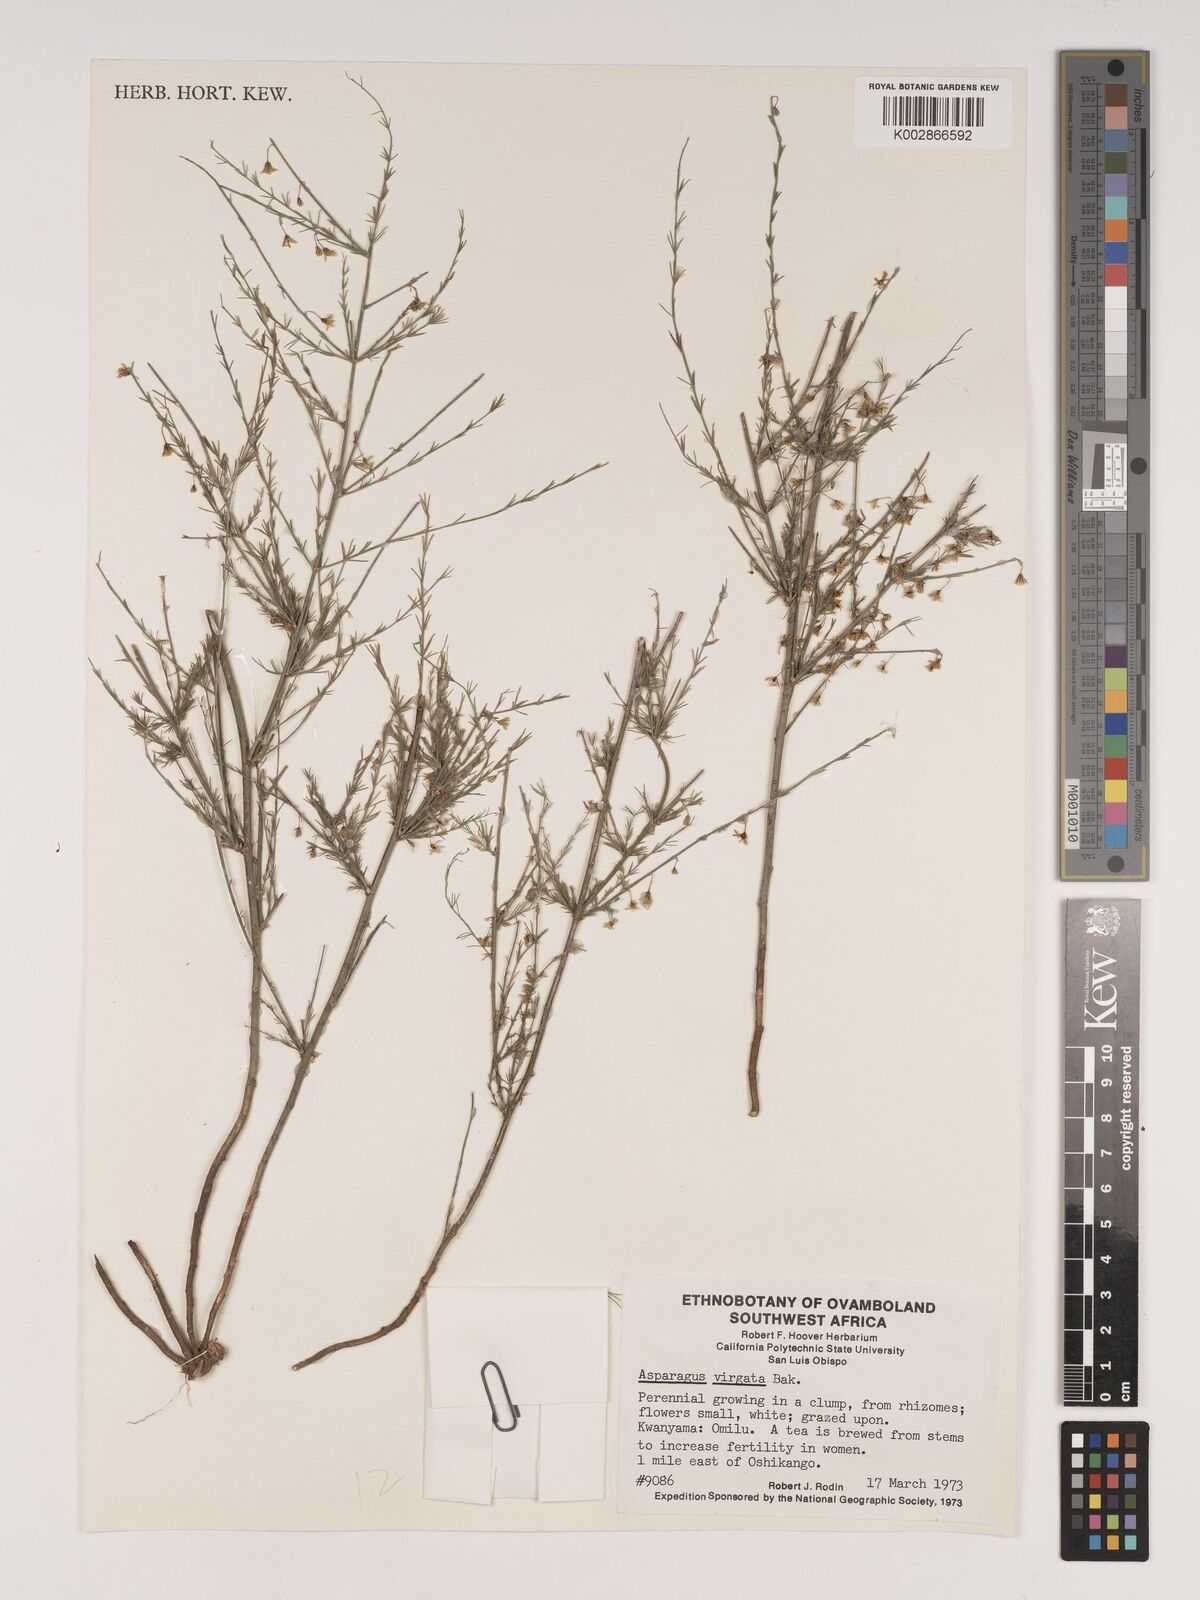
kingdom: Plantae
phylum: Tracheophyta
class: Liliopsida
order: Asparagales
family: Asparagaceae
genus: Asparagus
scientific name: Asparagus virgatus
